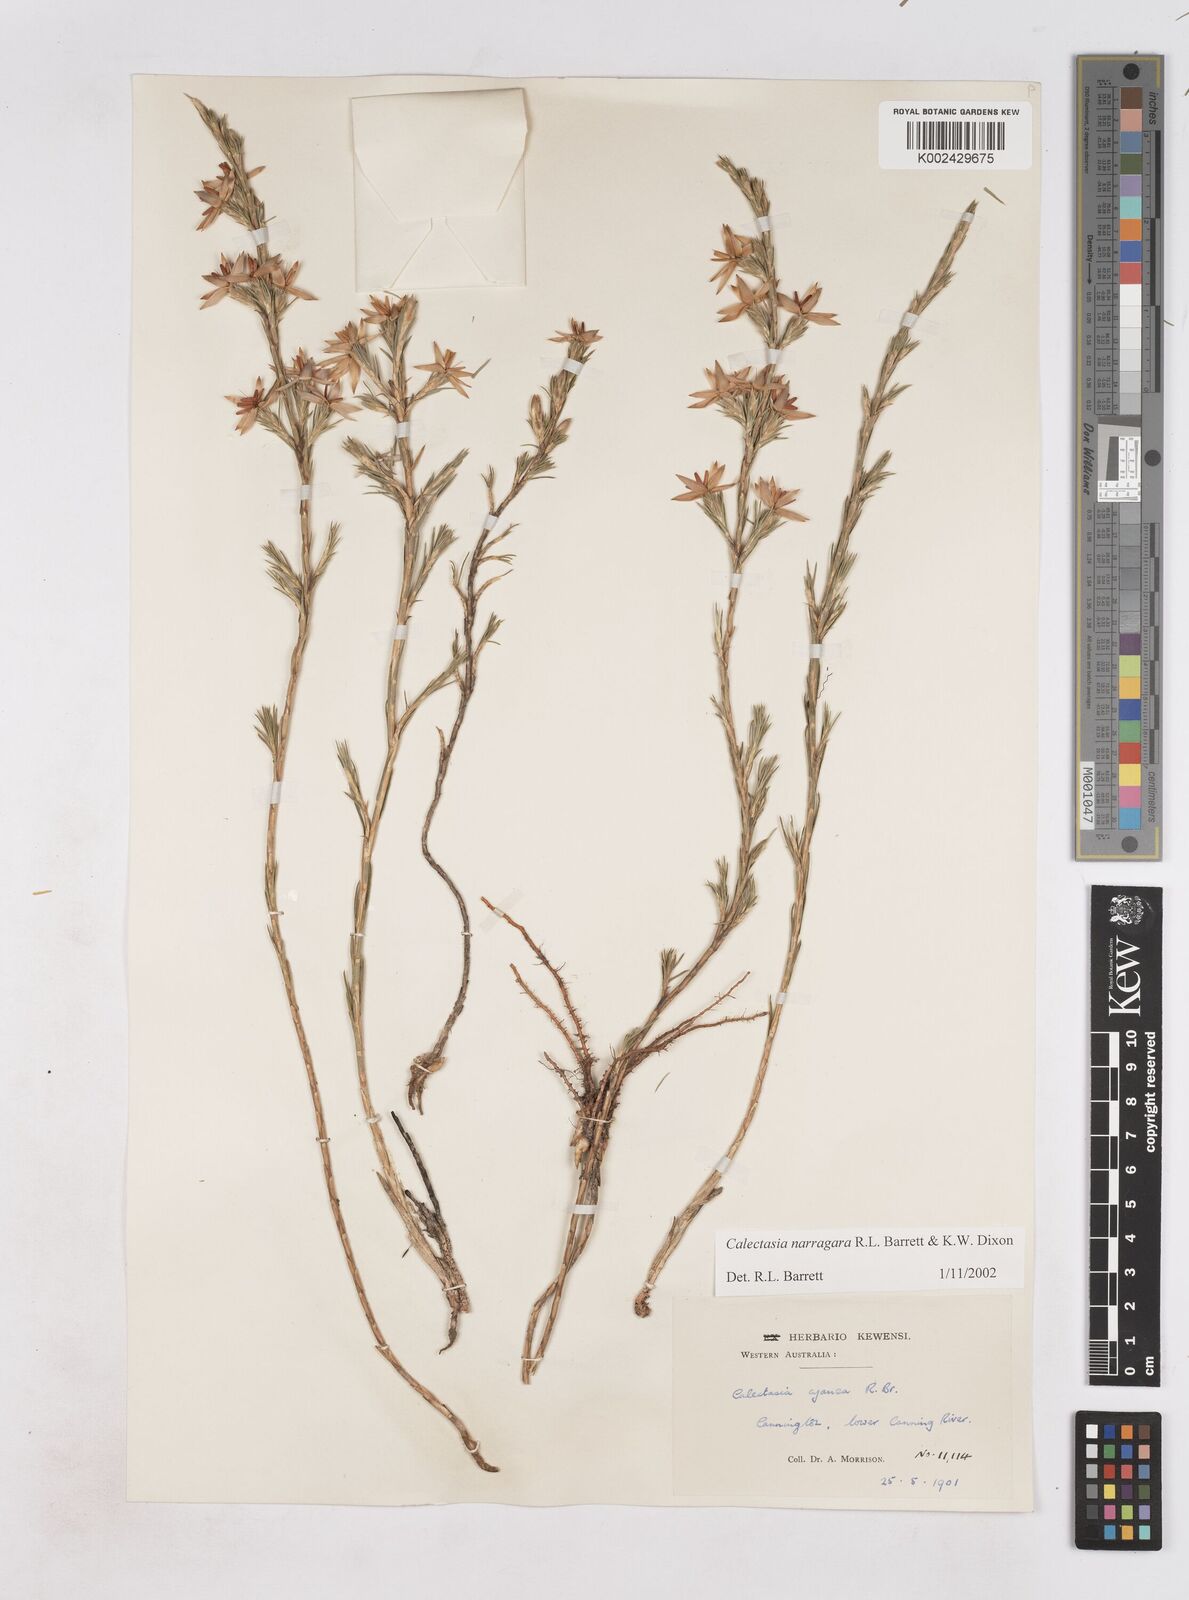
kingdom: Plantae
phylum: Tracheophyta
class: Liliopsida
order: Arecales
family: Dasypogonaceae
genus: Calectasia
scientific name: Calectasia narragara
